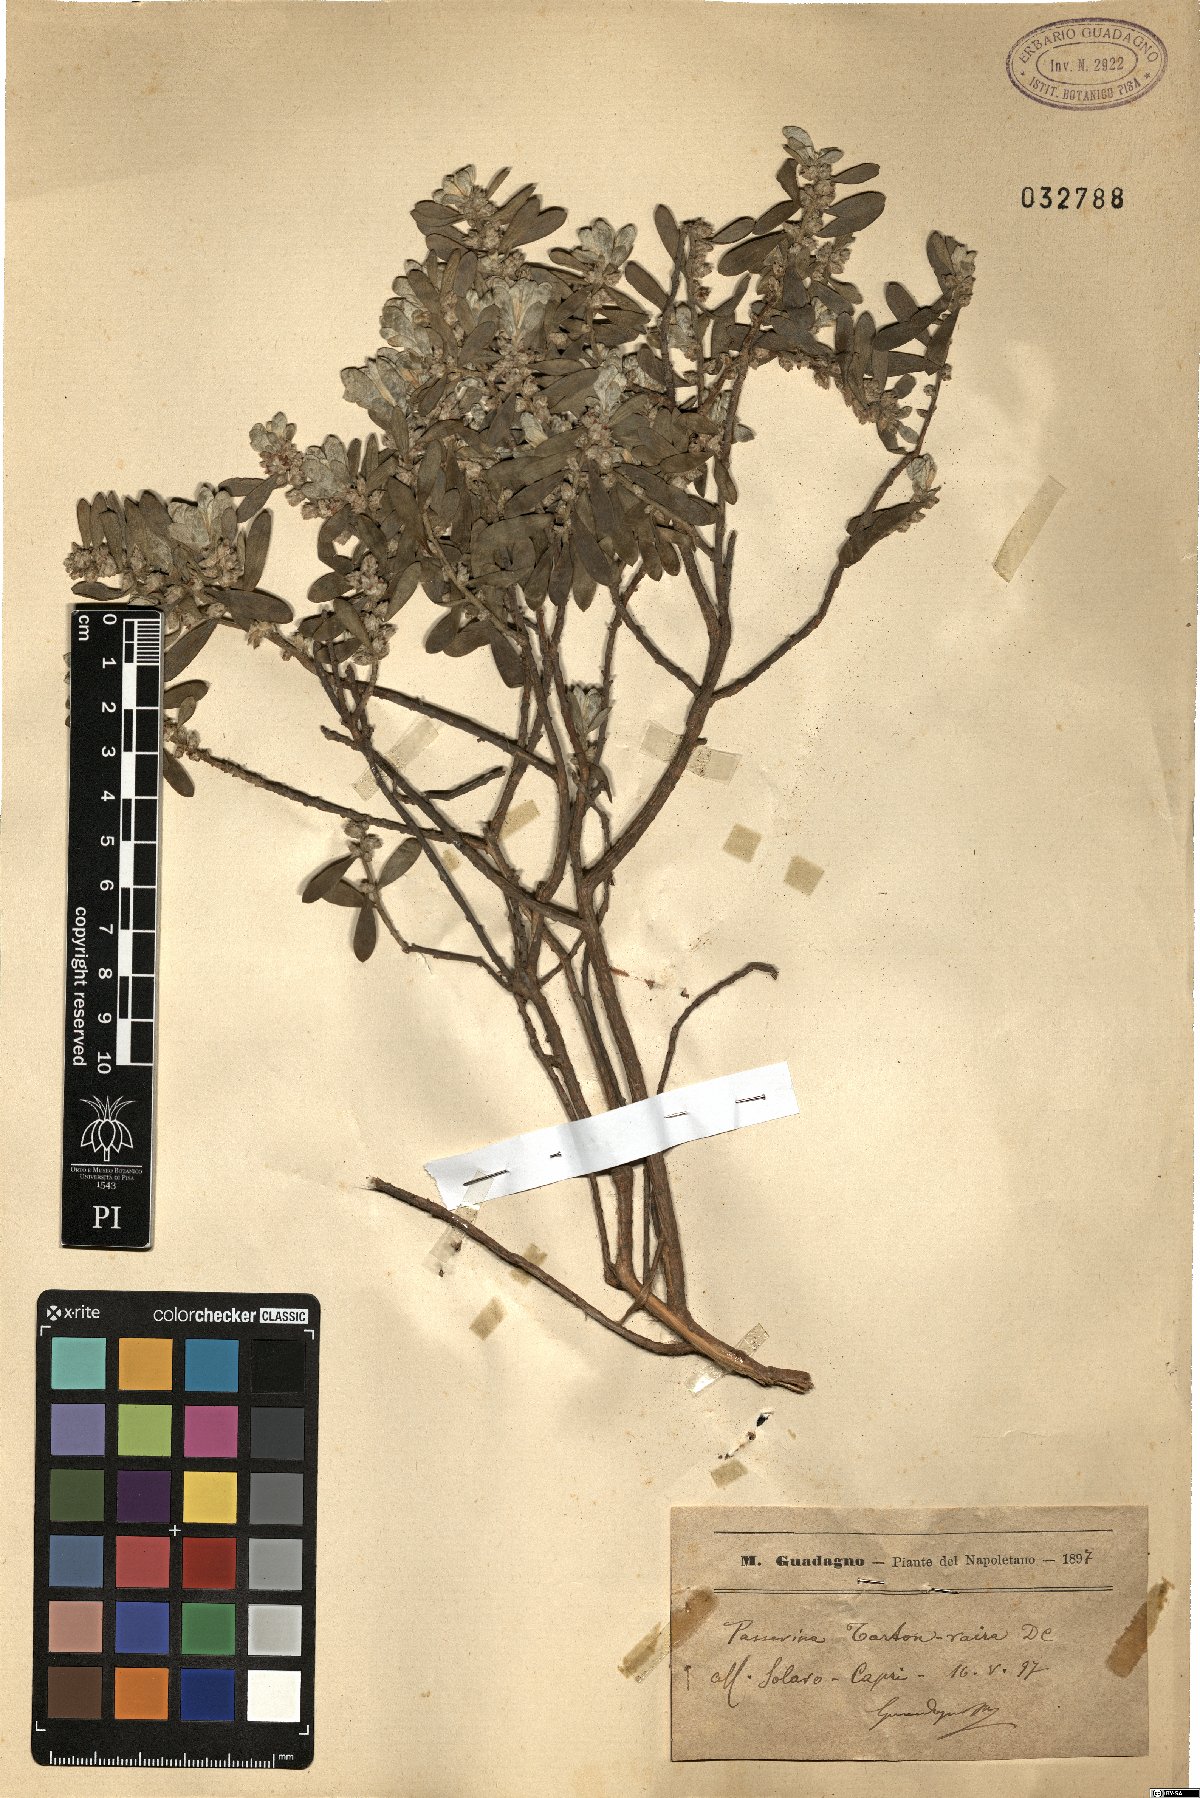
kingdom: Plantae
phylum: Tracheophyta
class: Magnoliopsida
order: Malvales
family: Thymelaeaceae
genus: Thymelaea
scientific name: Thymelaea tartonraira
